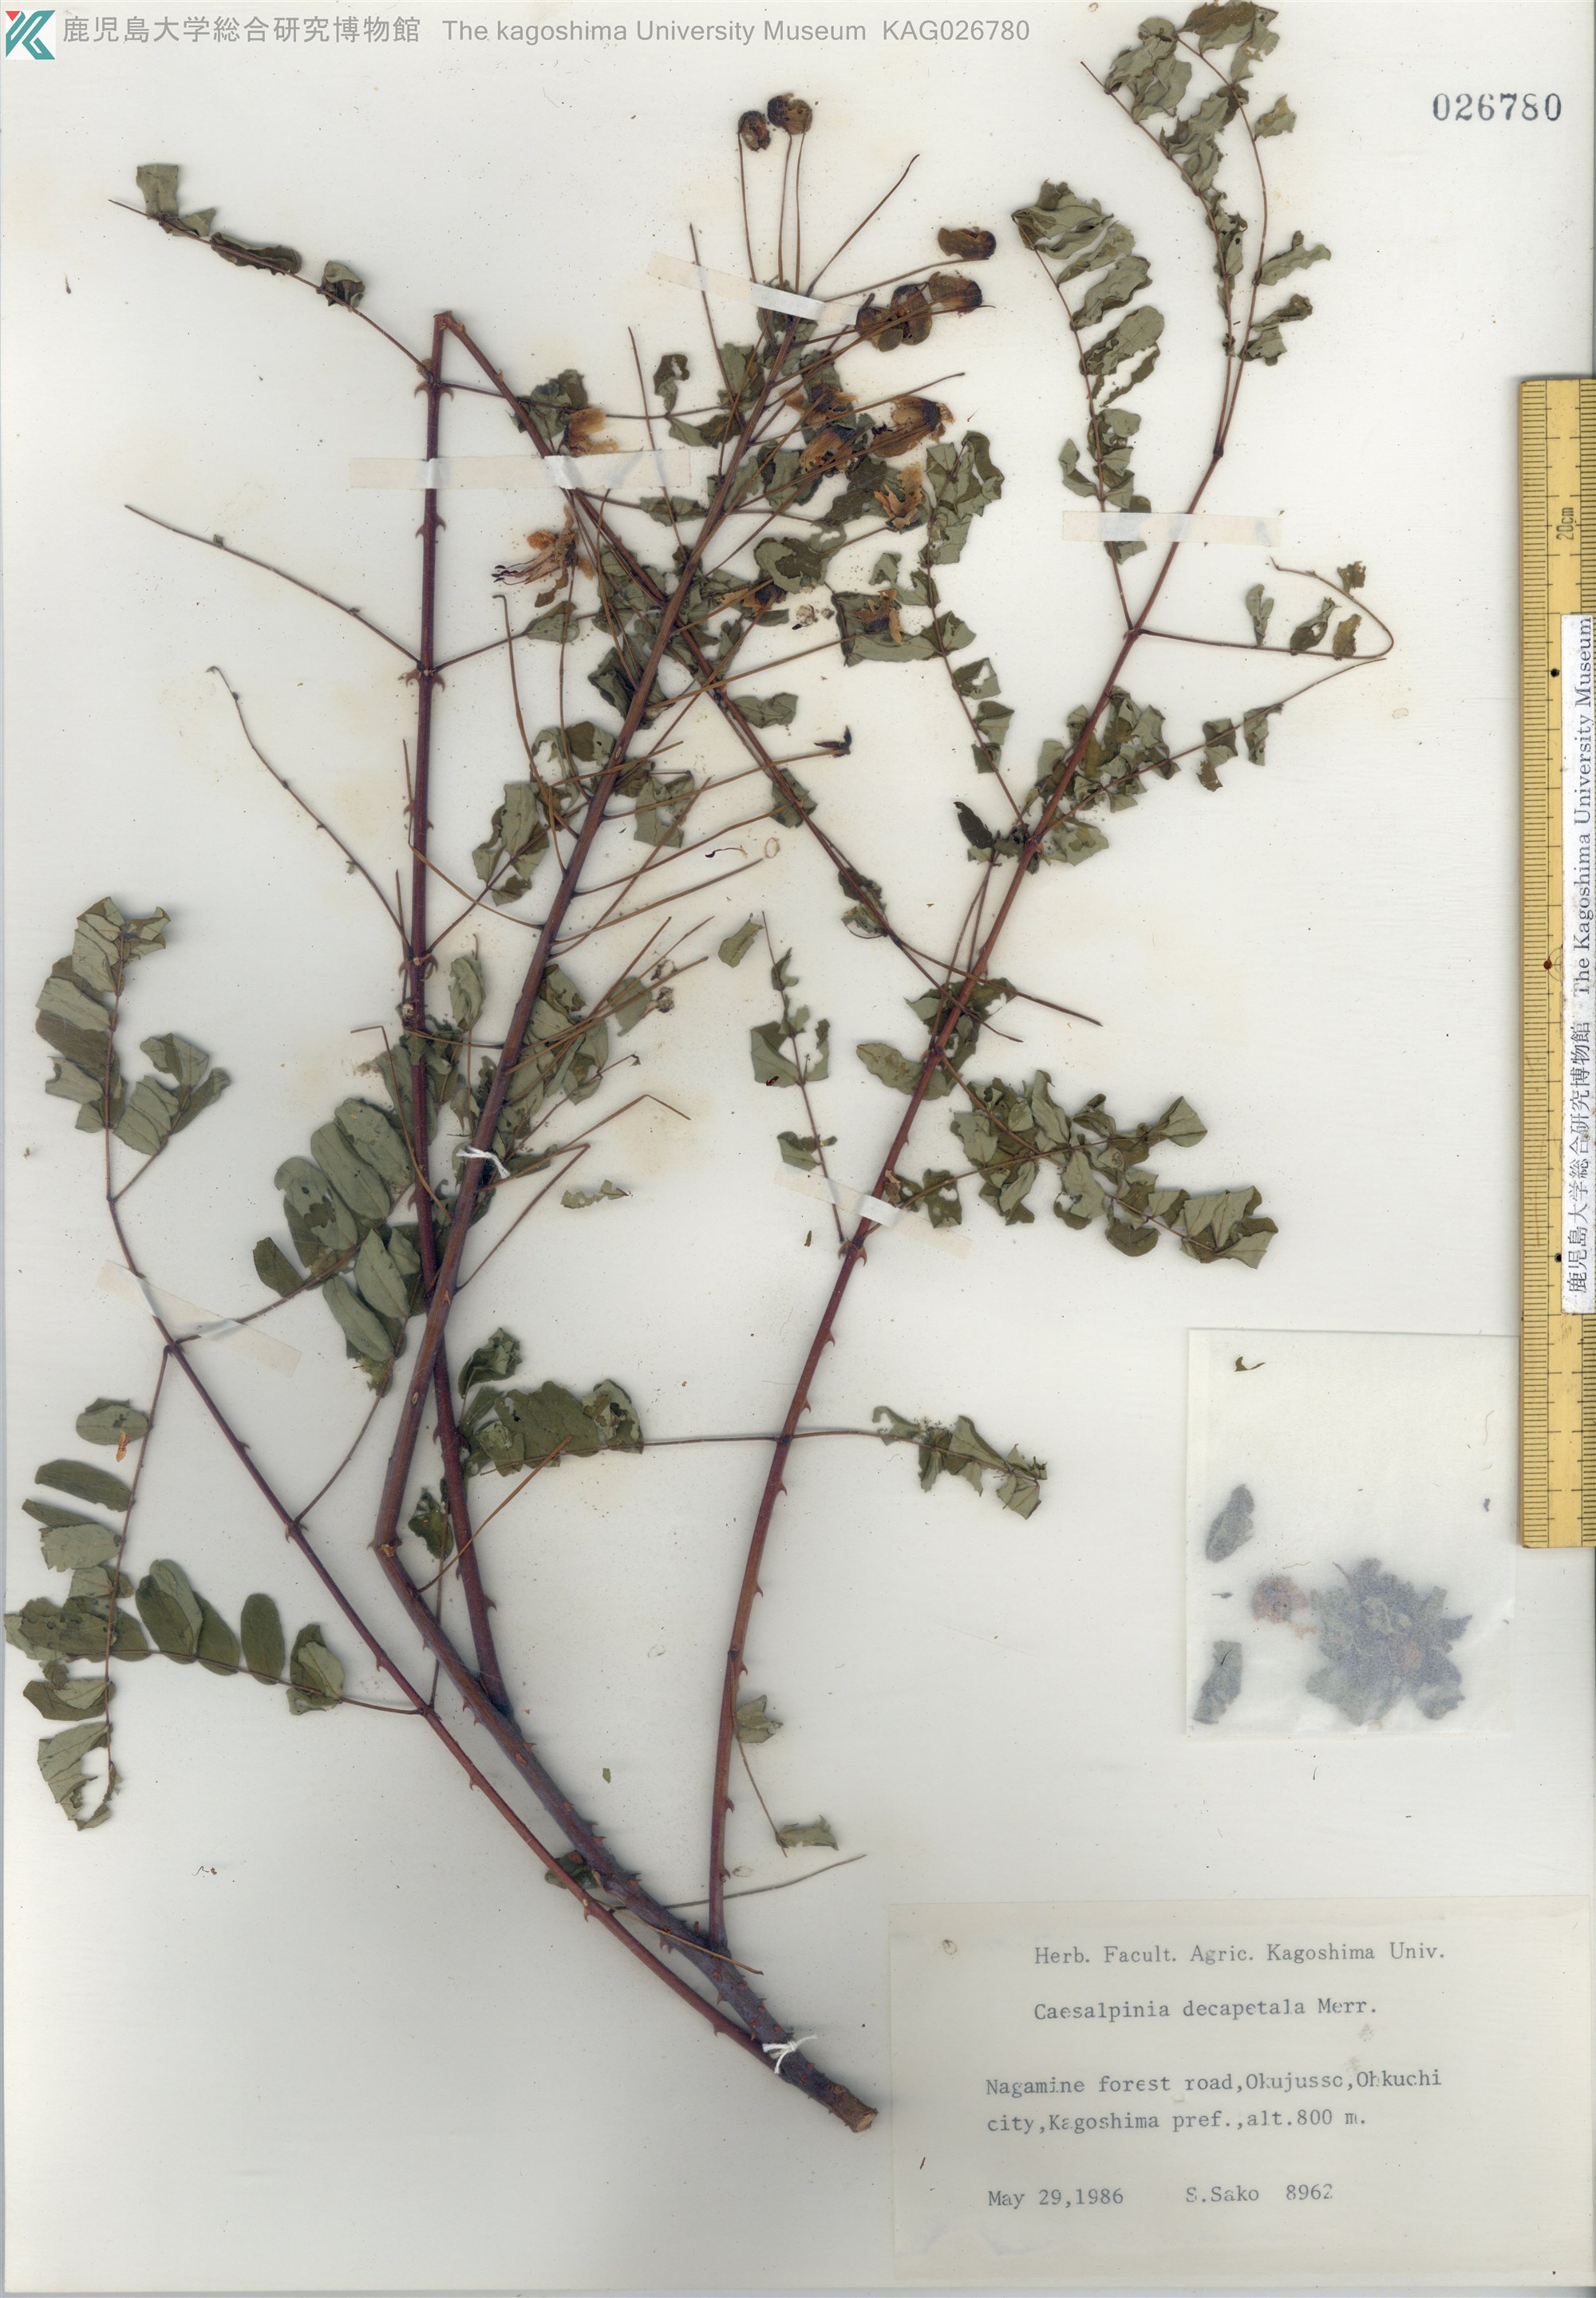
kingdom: Plantae
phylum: Tracheophyta
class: Magnoliopsida
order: Fabales
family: Fabaceae
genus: Biancaea
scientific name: Biancaea decapetala
